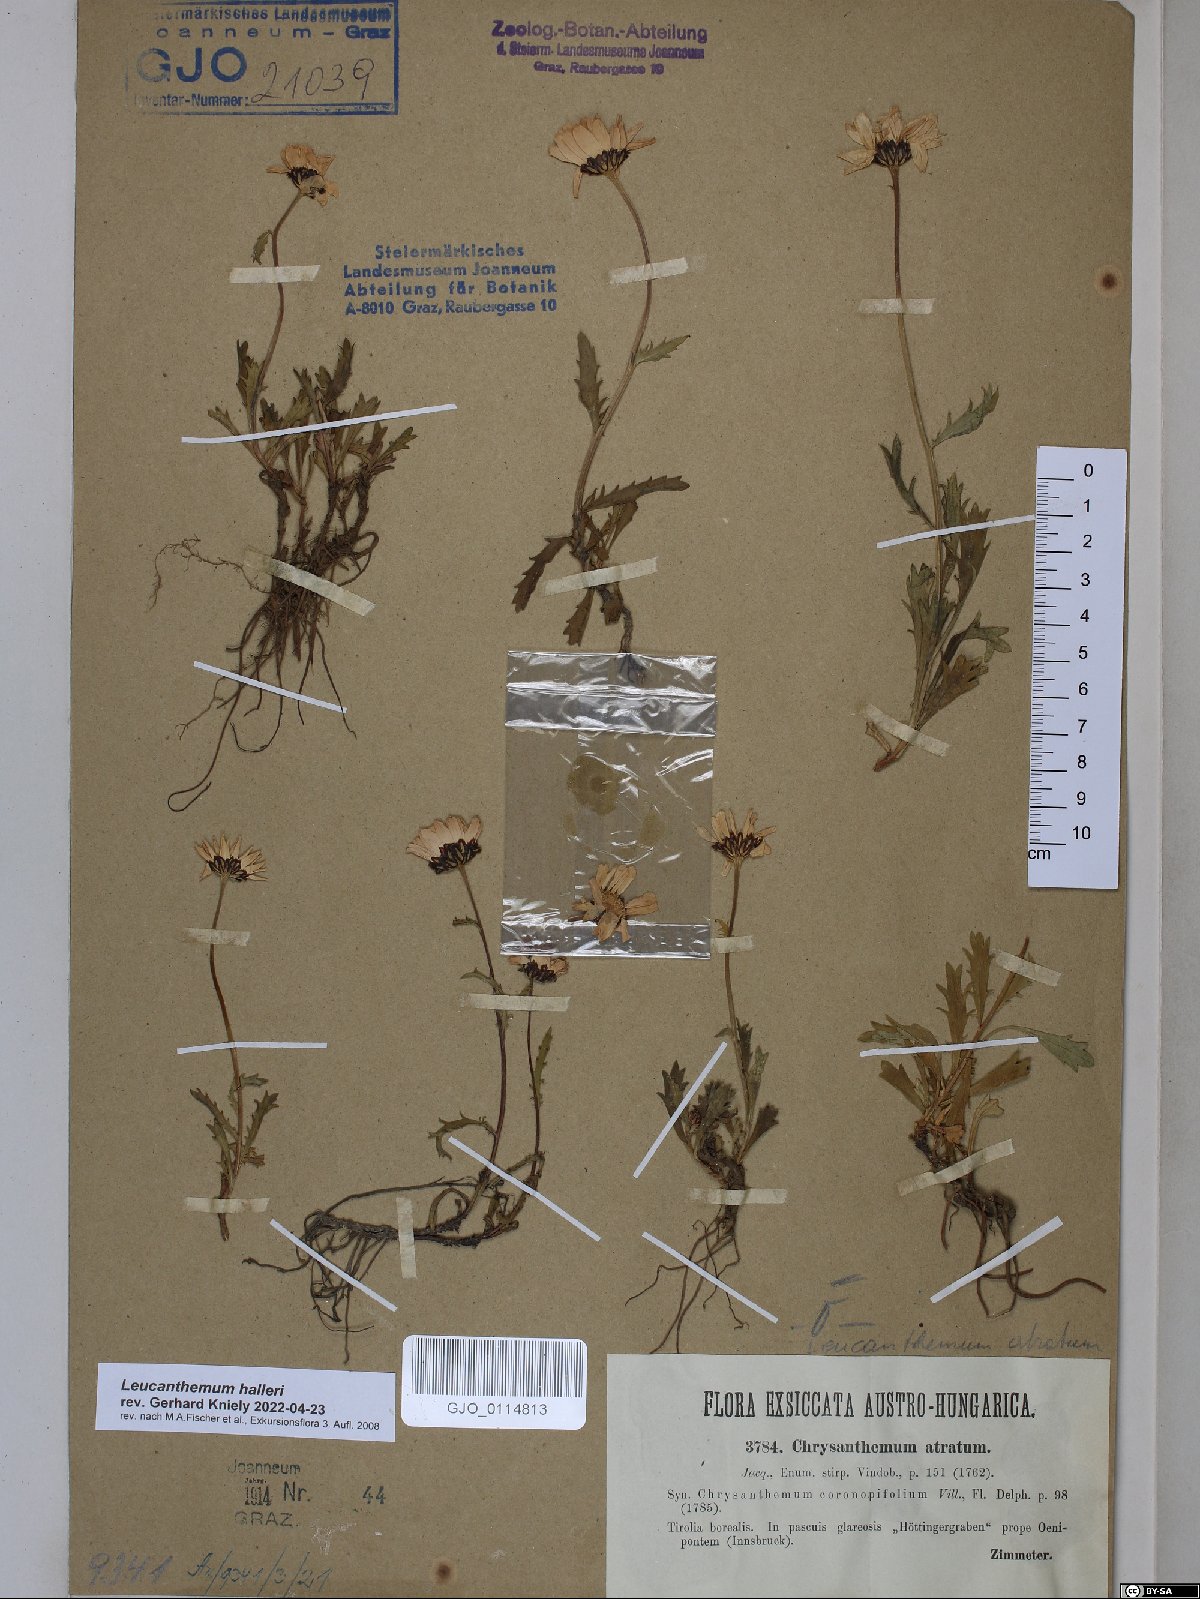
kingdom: Plantae
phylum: Tracheophyta
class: Magnoliopsida
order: Asterales
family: Asteraceae
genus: Leucanthemum
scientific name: Leucanthemum halleri
